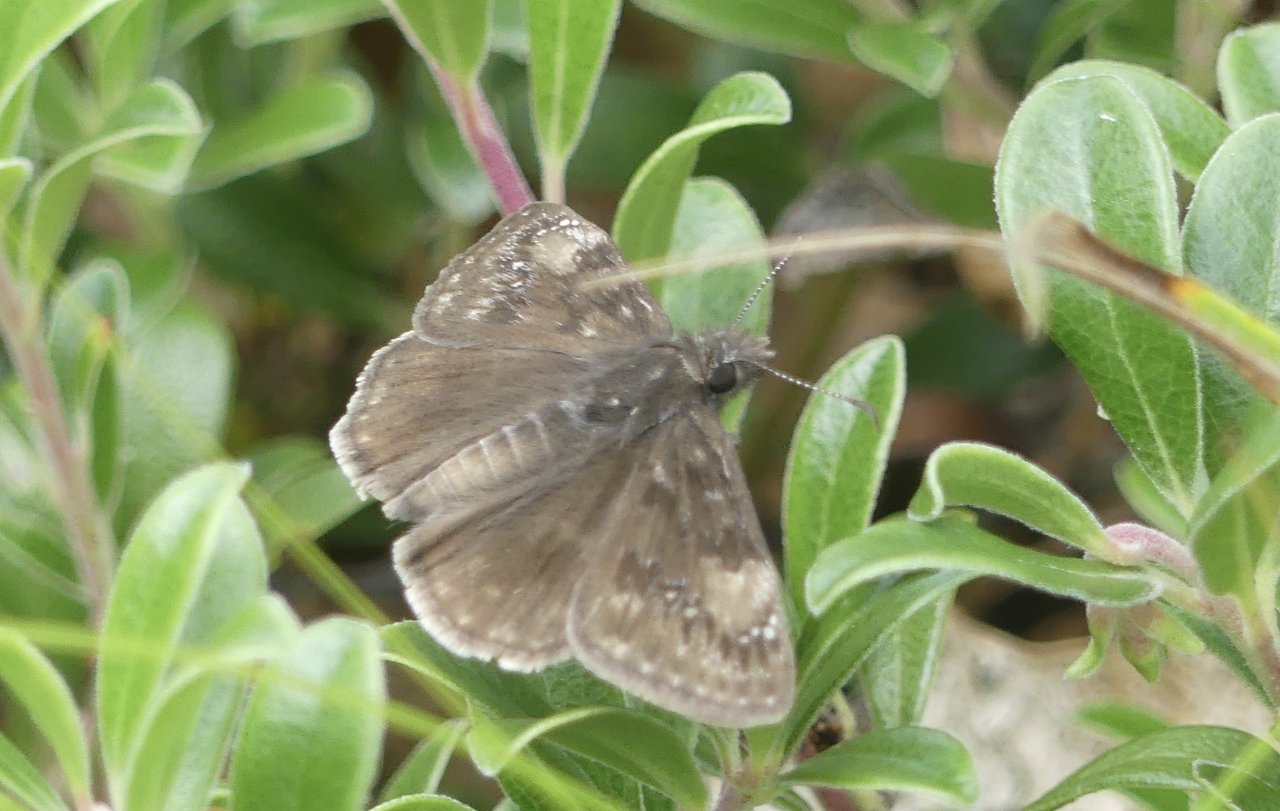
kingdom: Animalia
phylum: Arthropoda
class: Insecta
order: Lepidoptera
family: Hesperiidae
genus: Gesta
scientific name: Gesta
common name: Wild Indigo Duskywing
